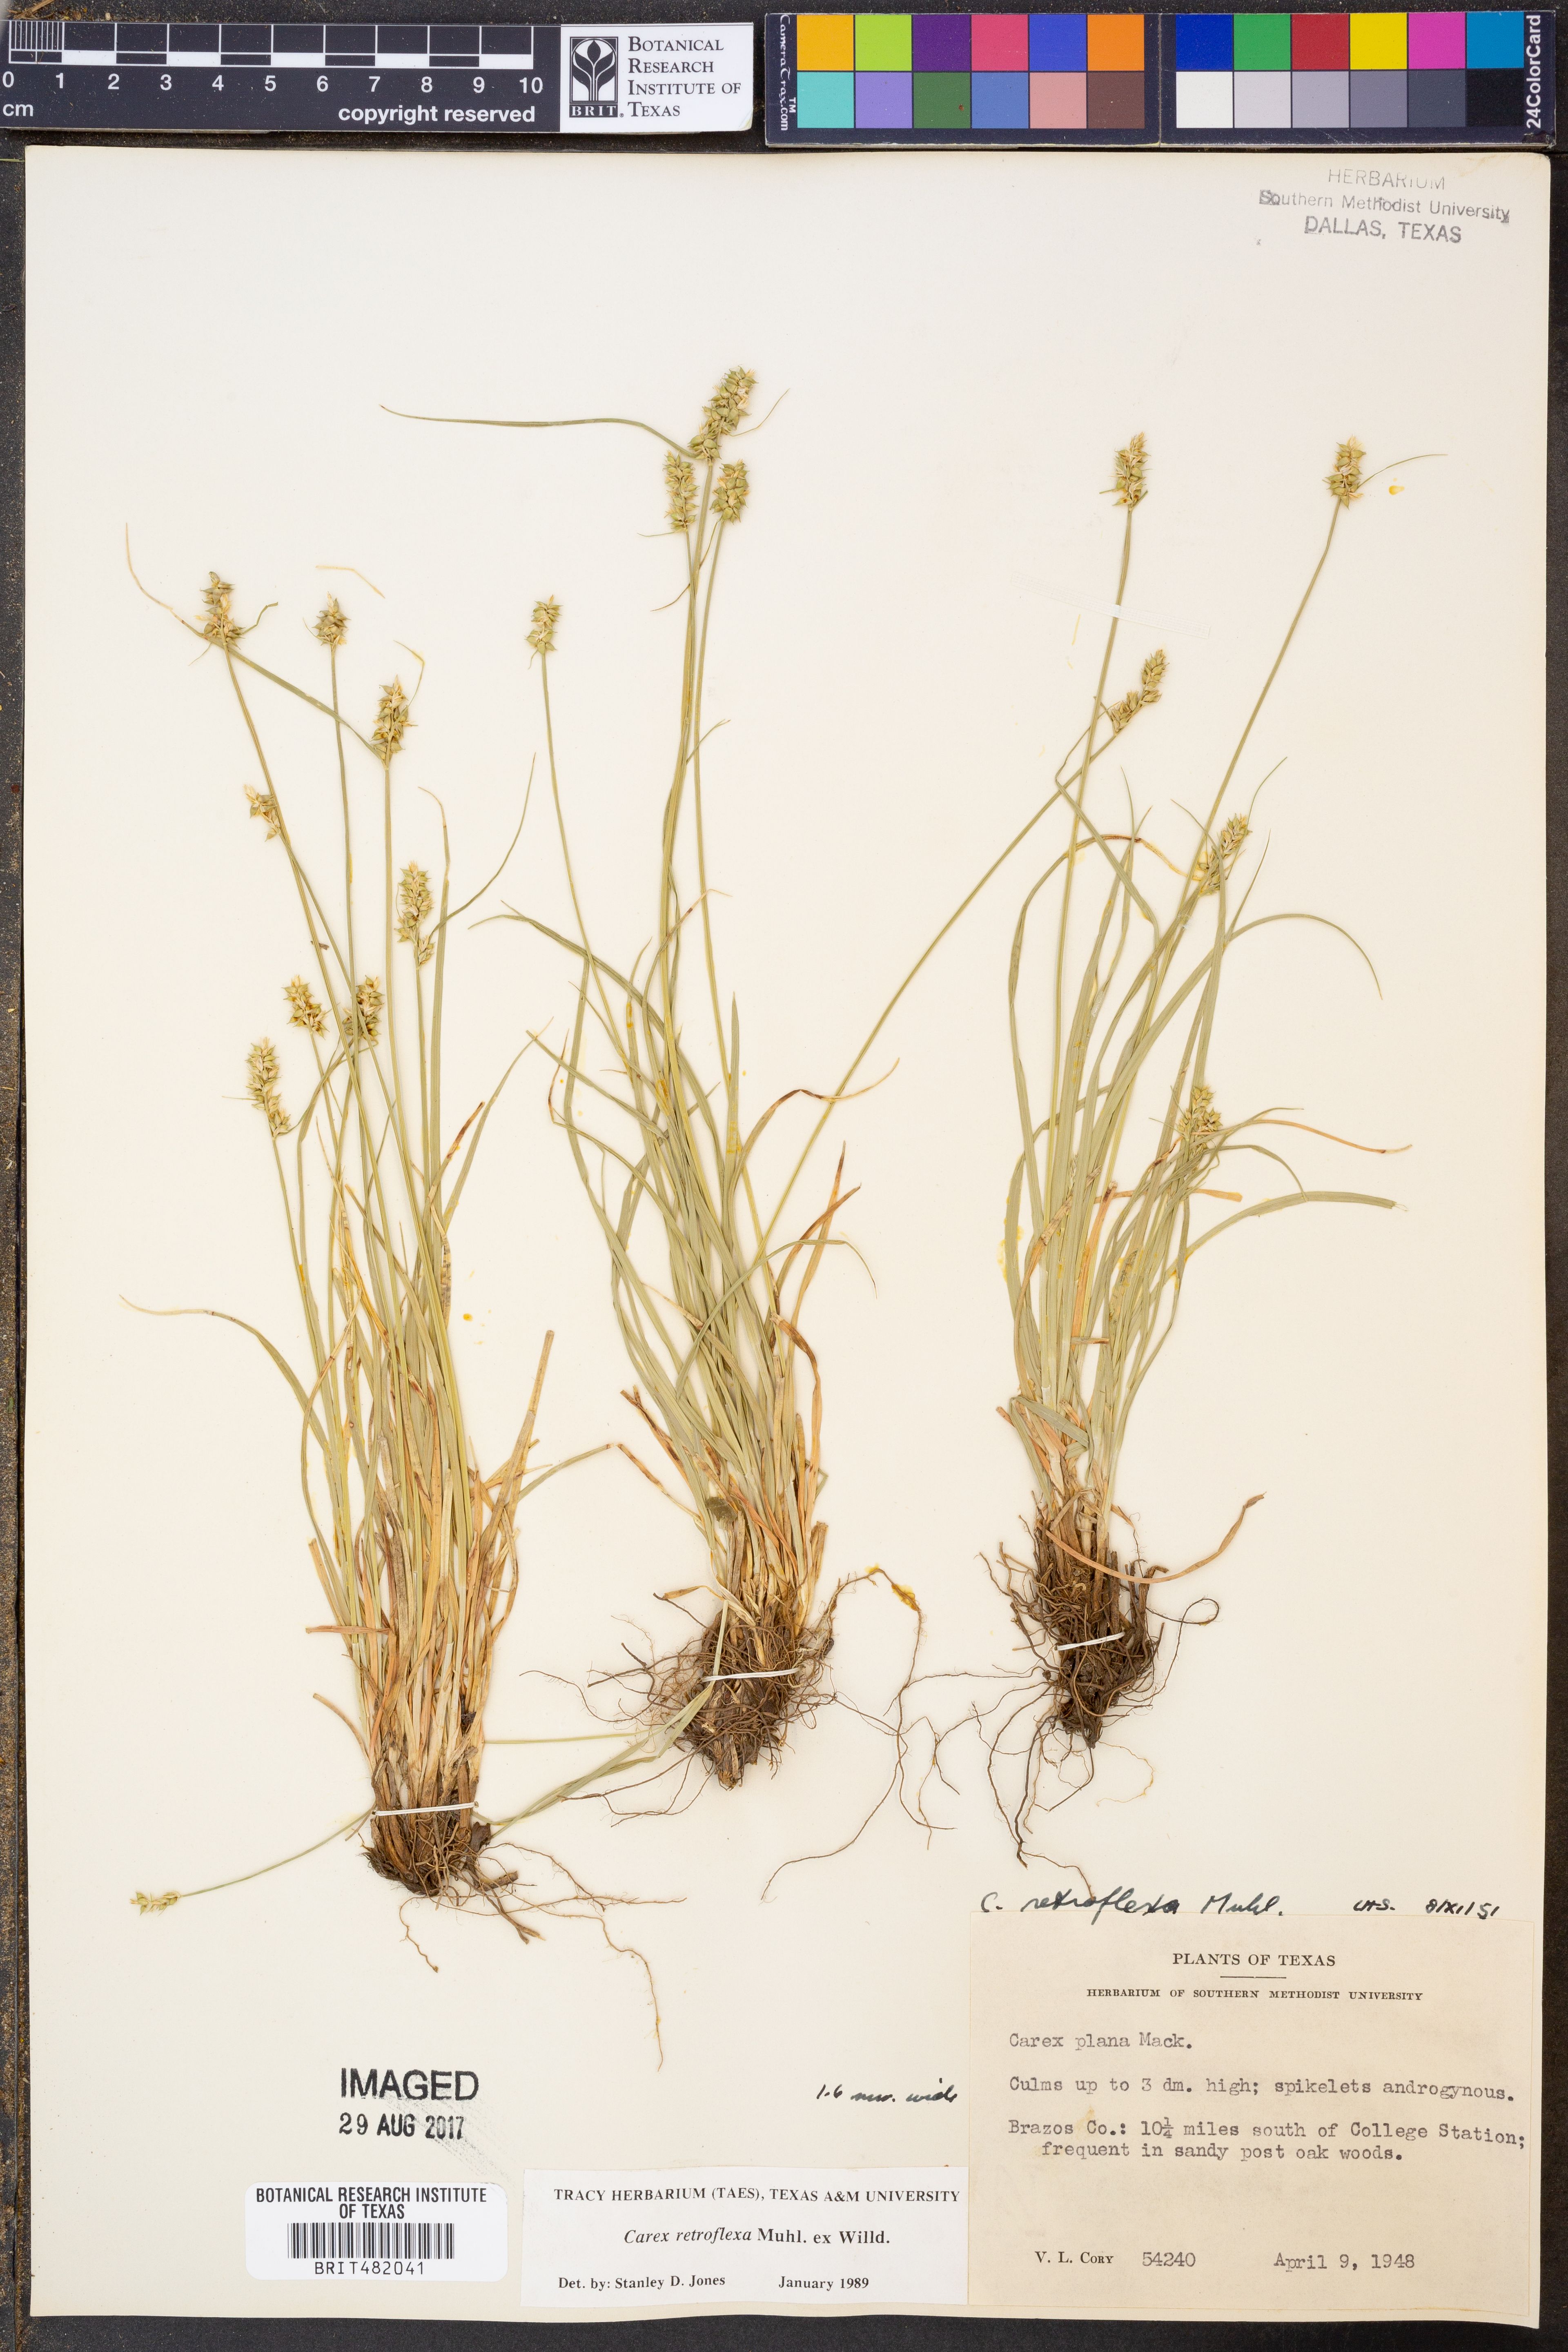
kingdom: Plantae
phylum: Tracheophyta
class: Liliopsida
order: Poales
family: Cyperaceae
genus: Carex
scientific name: Carex retroflexa
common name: Reflexed sedge
